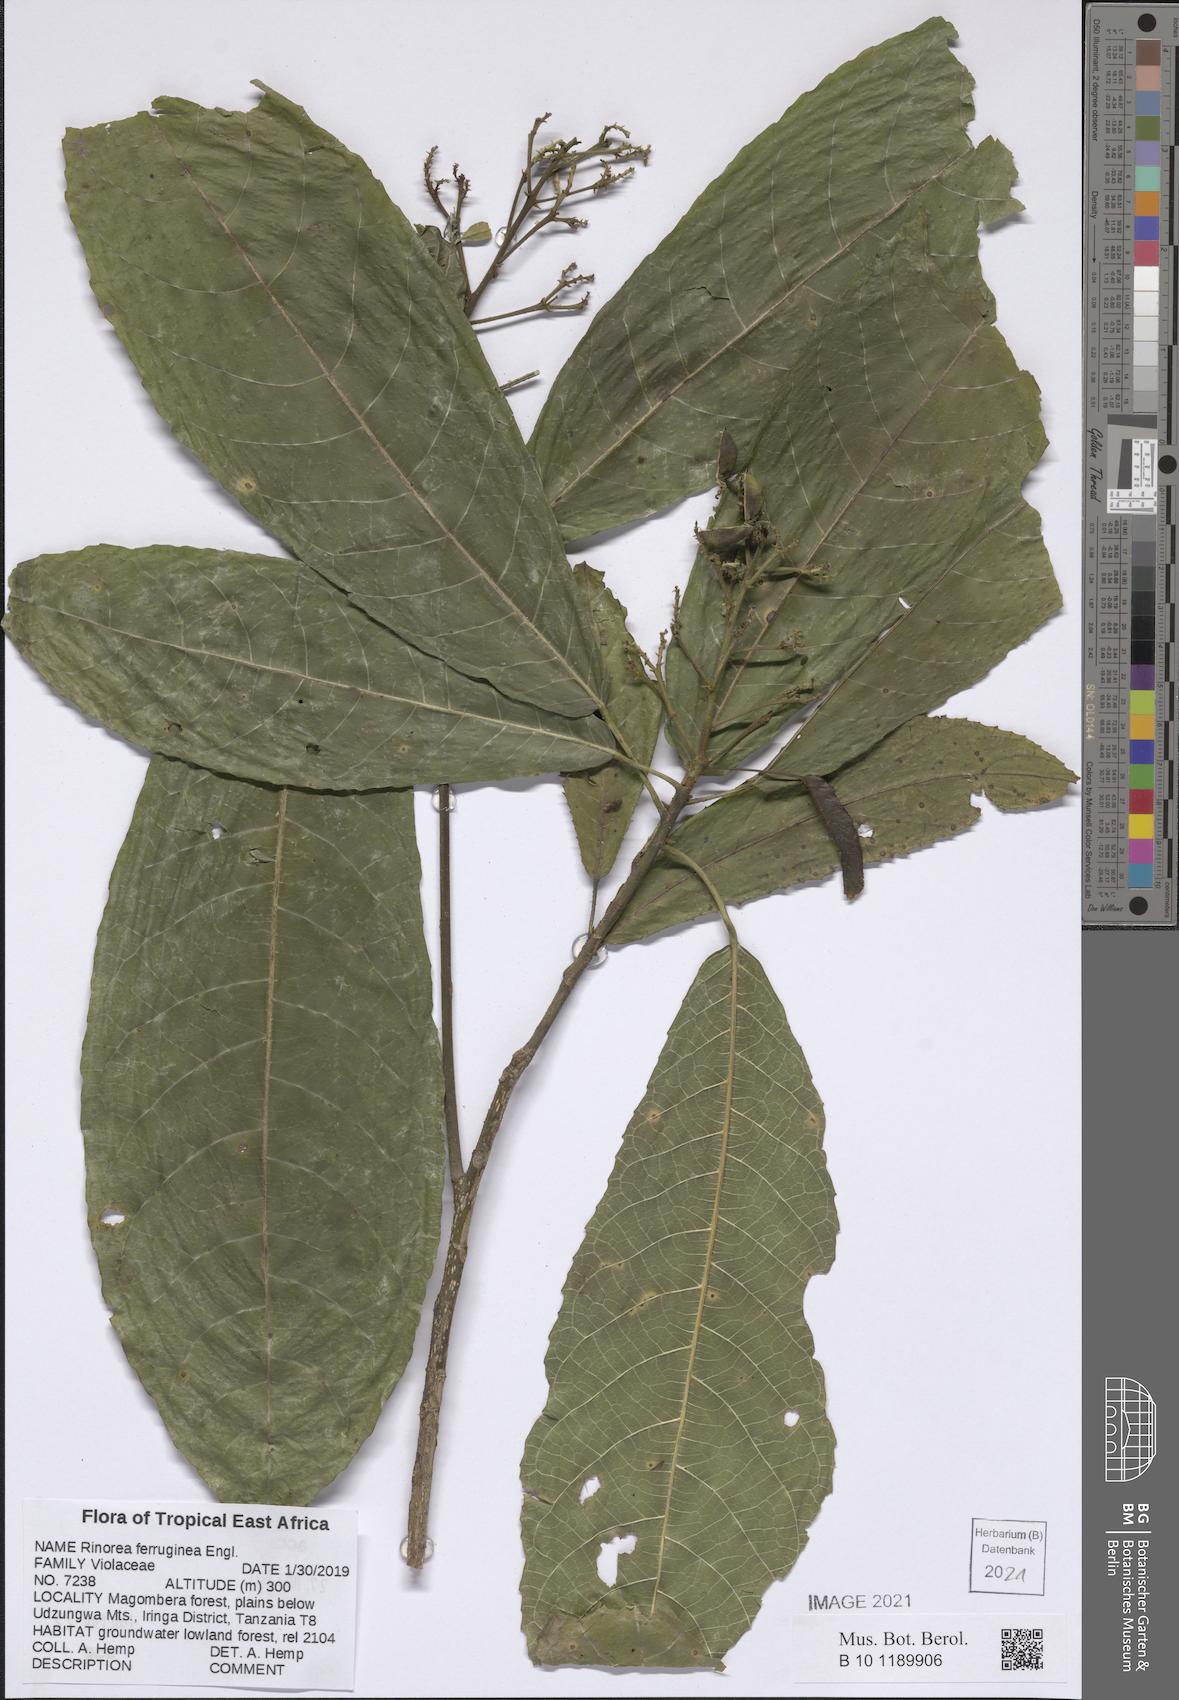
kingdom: Plantae
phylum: Tracheophyta
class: Magnoliopsida
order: Malpighiales
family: Violaceae
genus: Rinorea
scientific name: Rinorea ferruginea
